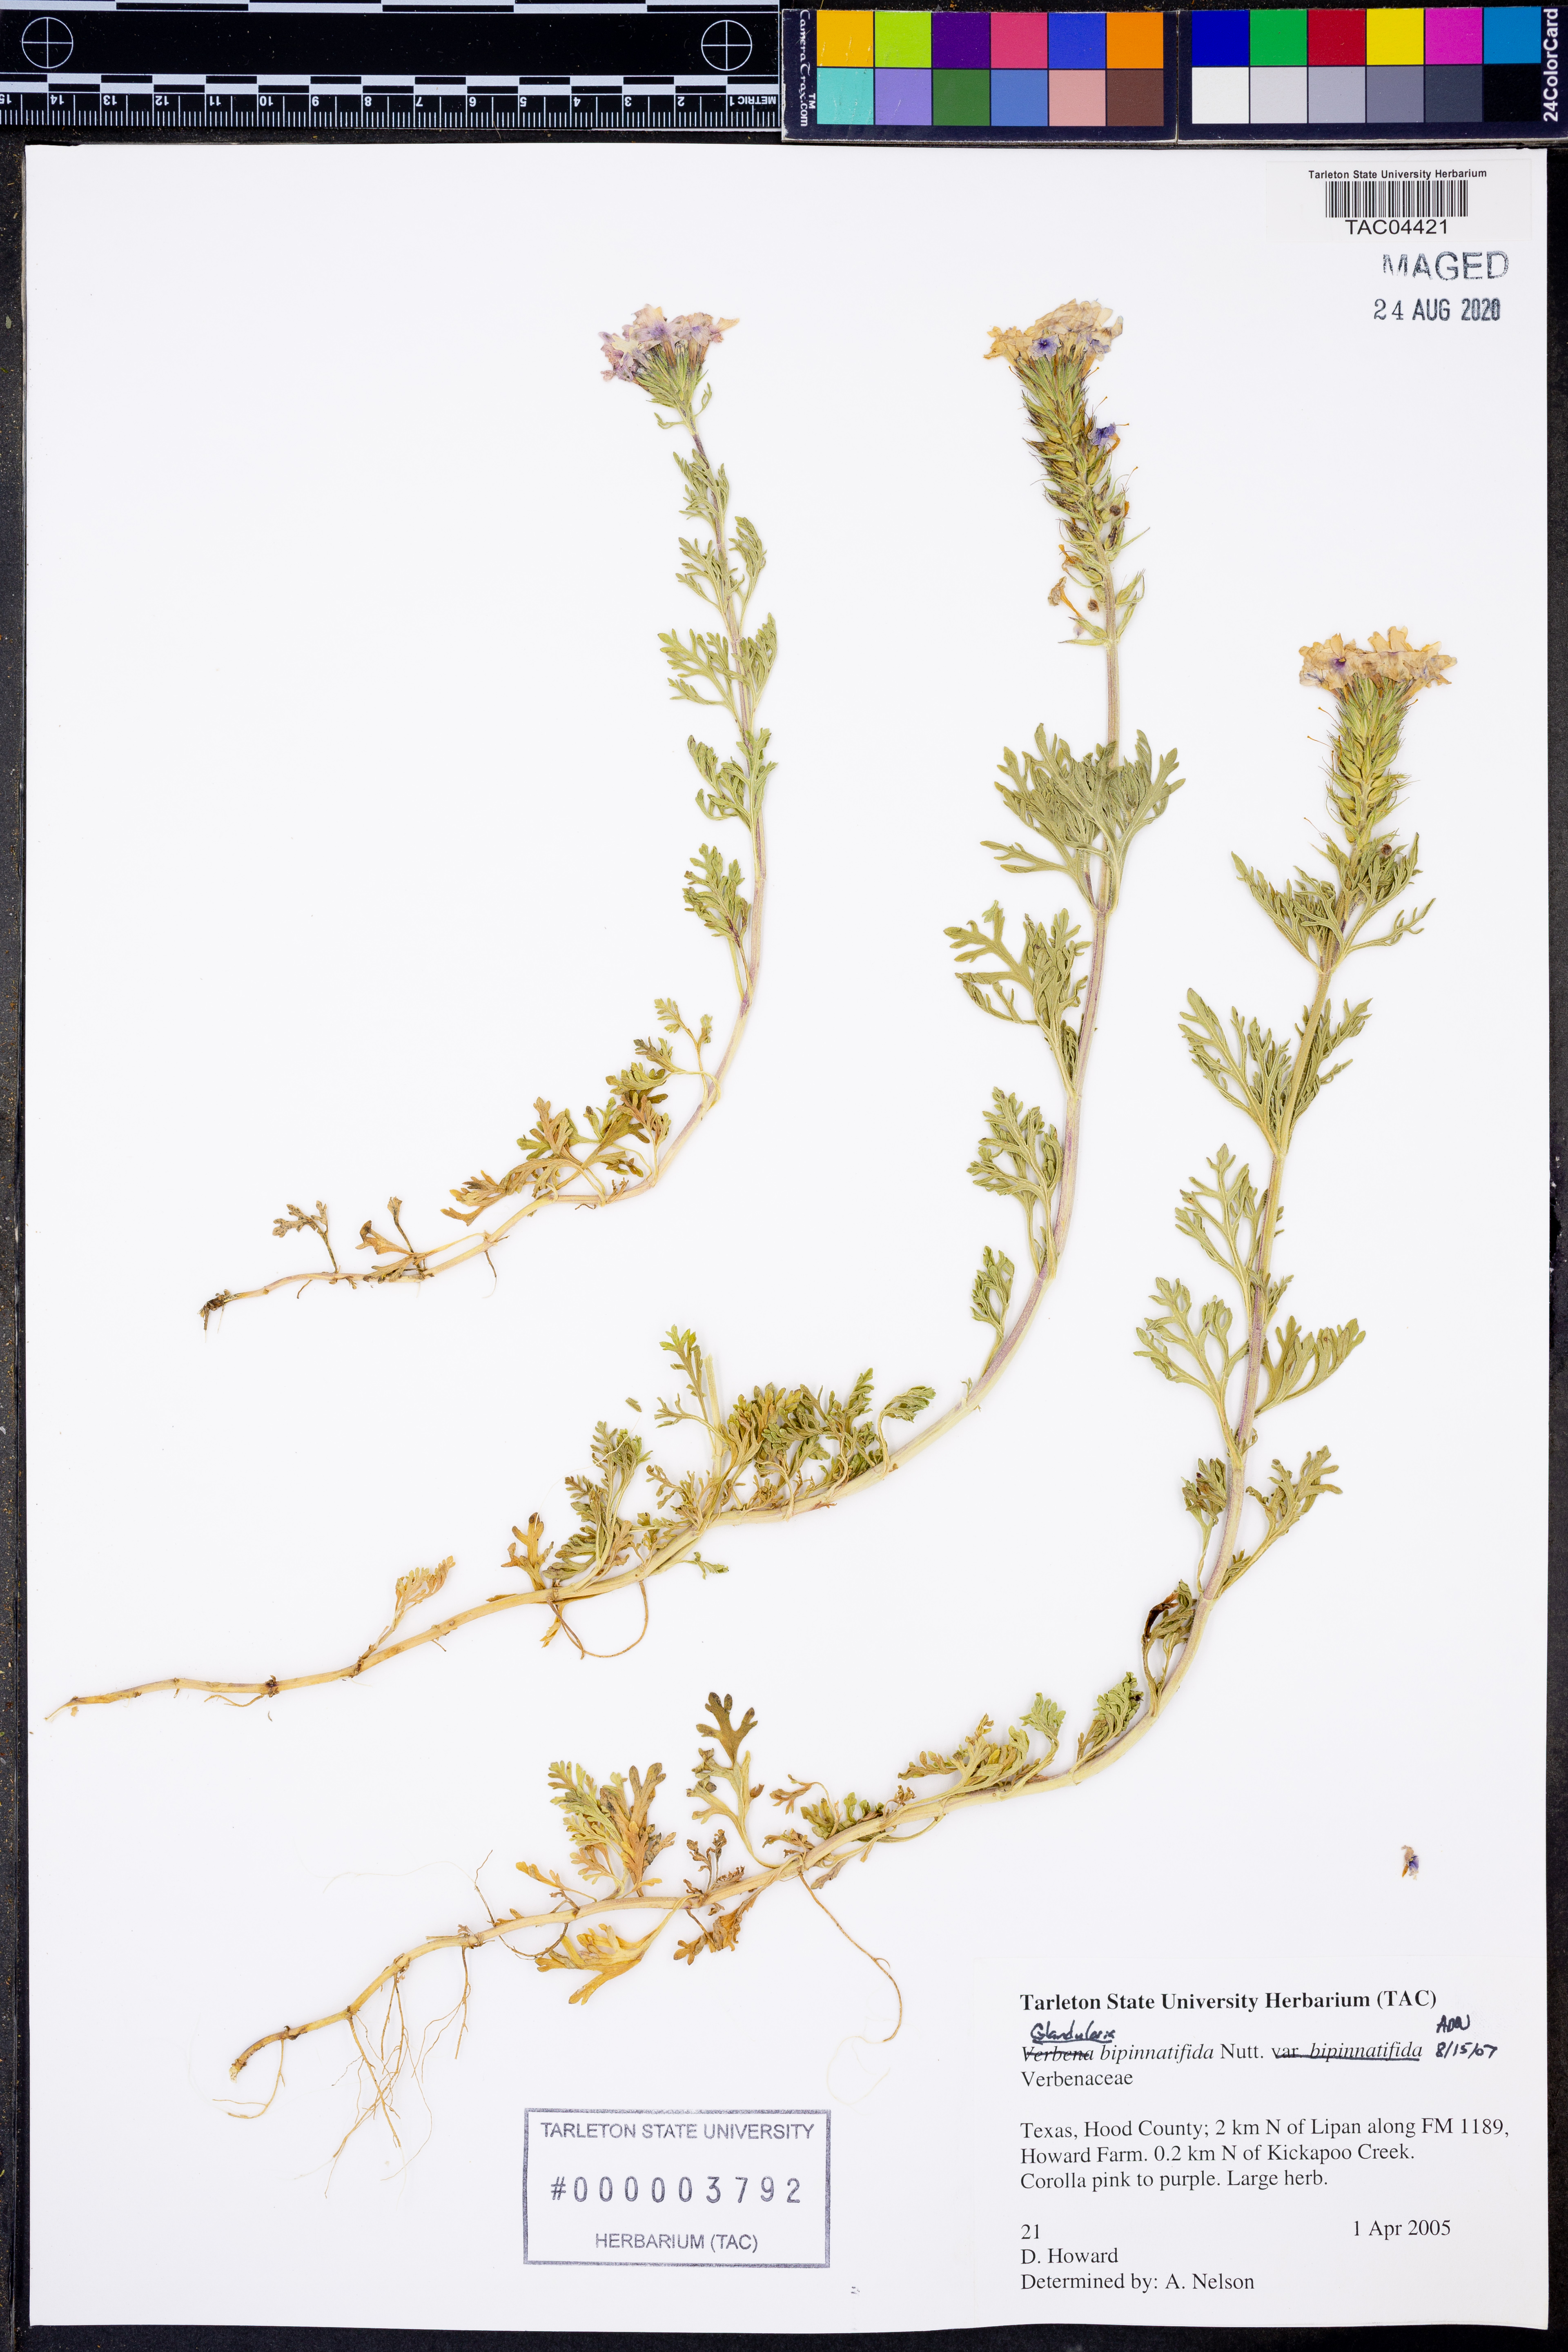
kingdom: Plantae
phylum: Tracheophyta
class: Magnoliopsida
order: Lamiales
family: Verbenaceae
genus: Verbena
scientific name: Verbena bipinnatifida
